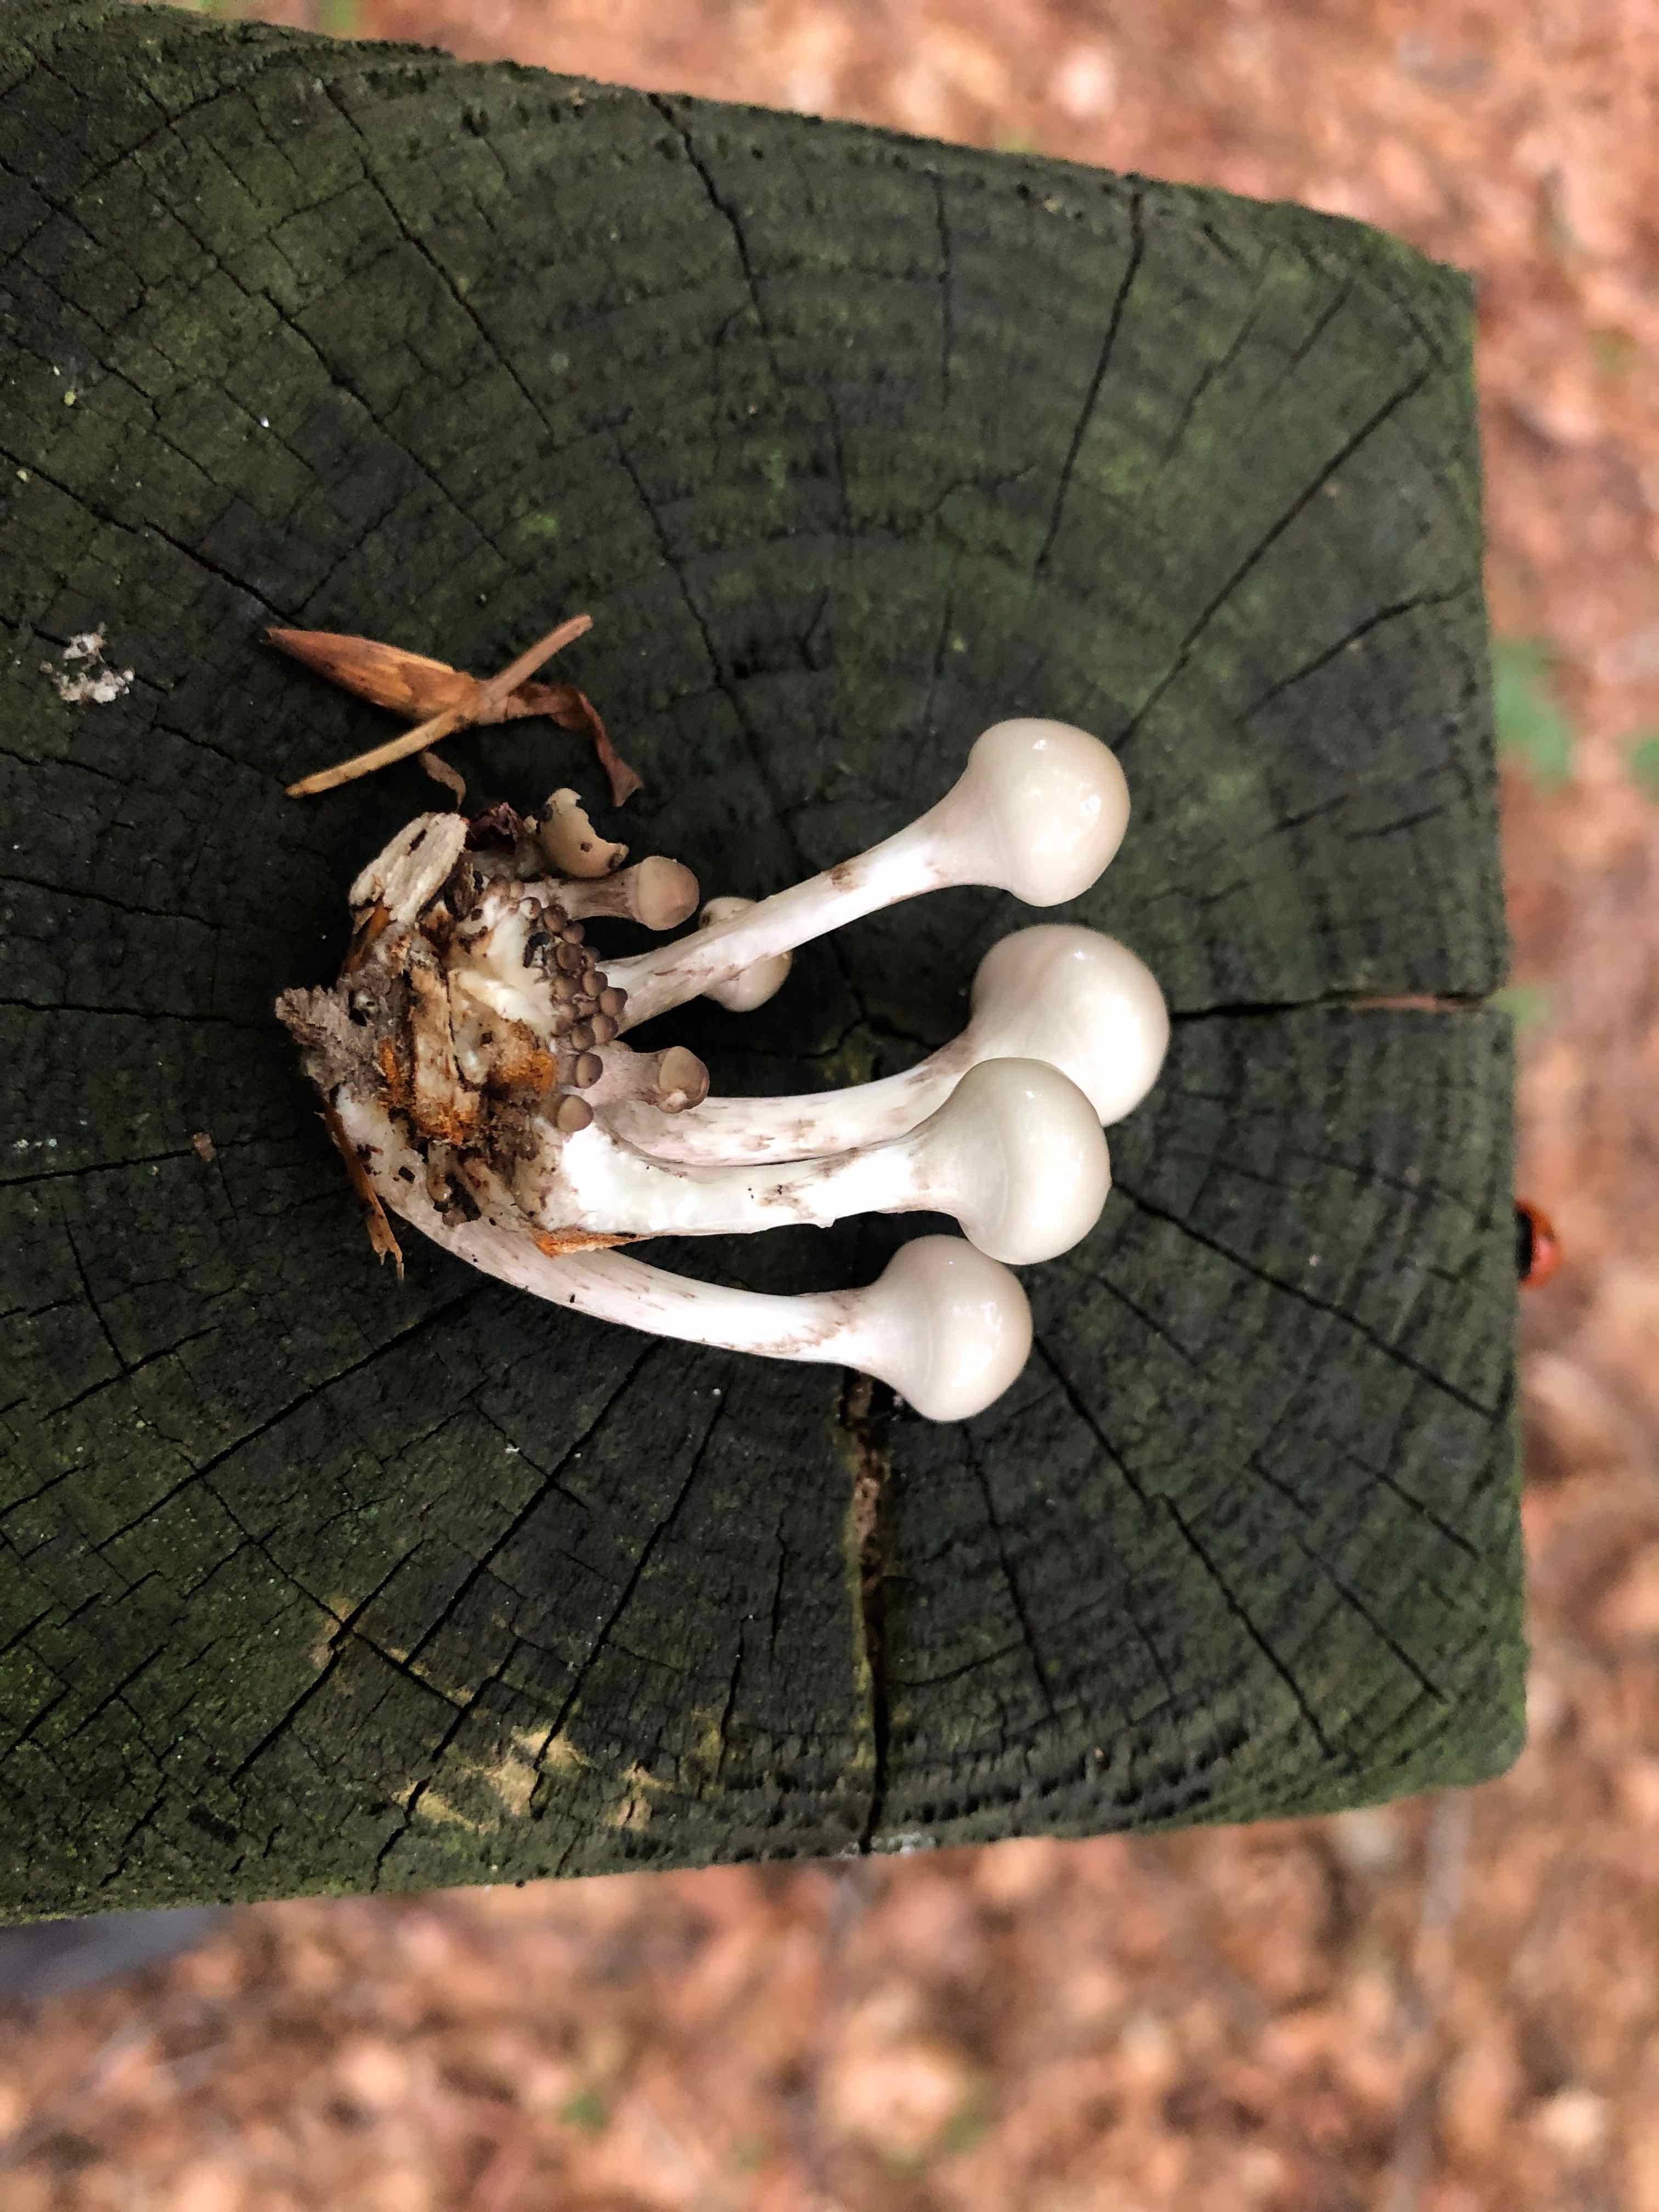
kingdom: Fungi
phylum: Basidiomycota
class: Agaricomycetes
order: Agaricales
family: Physalacriaceae
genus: Mucidula
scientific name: Mucidula mucida
